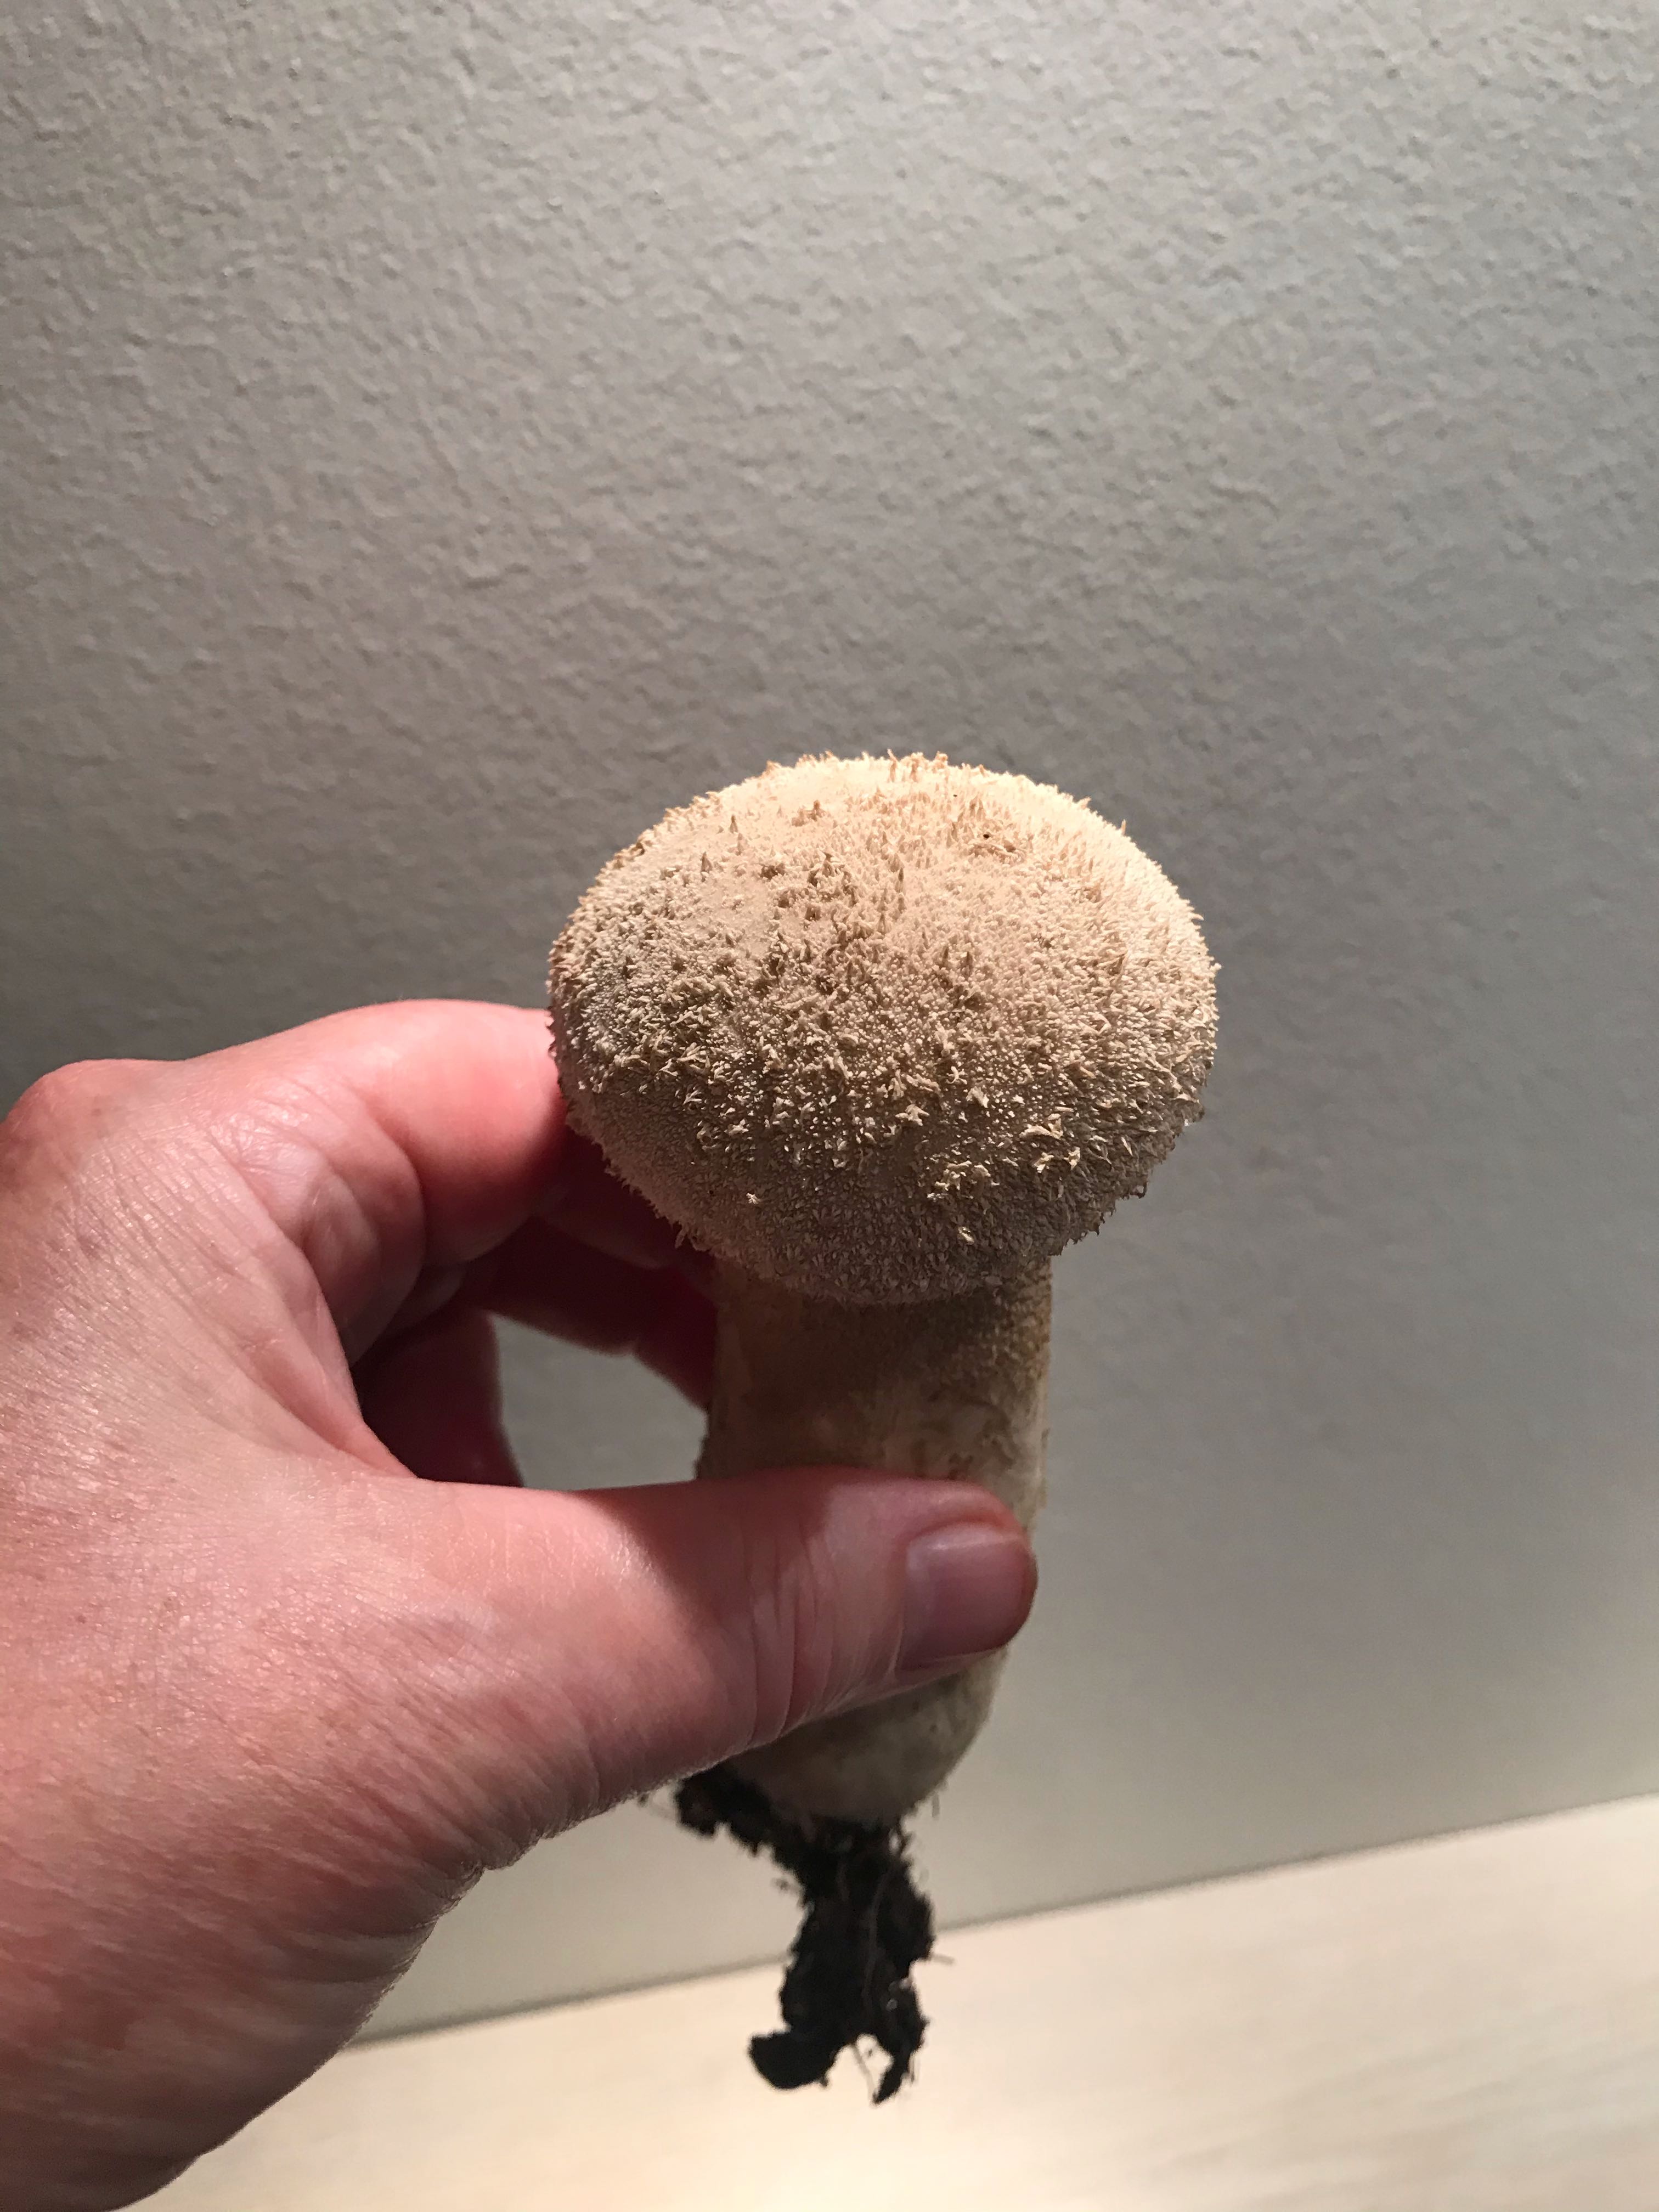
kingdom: Fungi
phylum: Basidiomycota
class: Agaricomycetes
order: Agaricales
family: Lycoperdaceae
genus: Lycoperdon
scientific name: Lycoperdon excipuliforme
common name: højstokket støvbold
